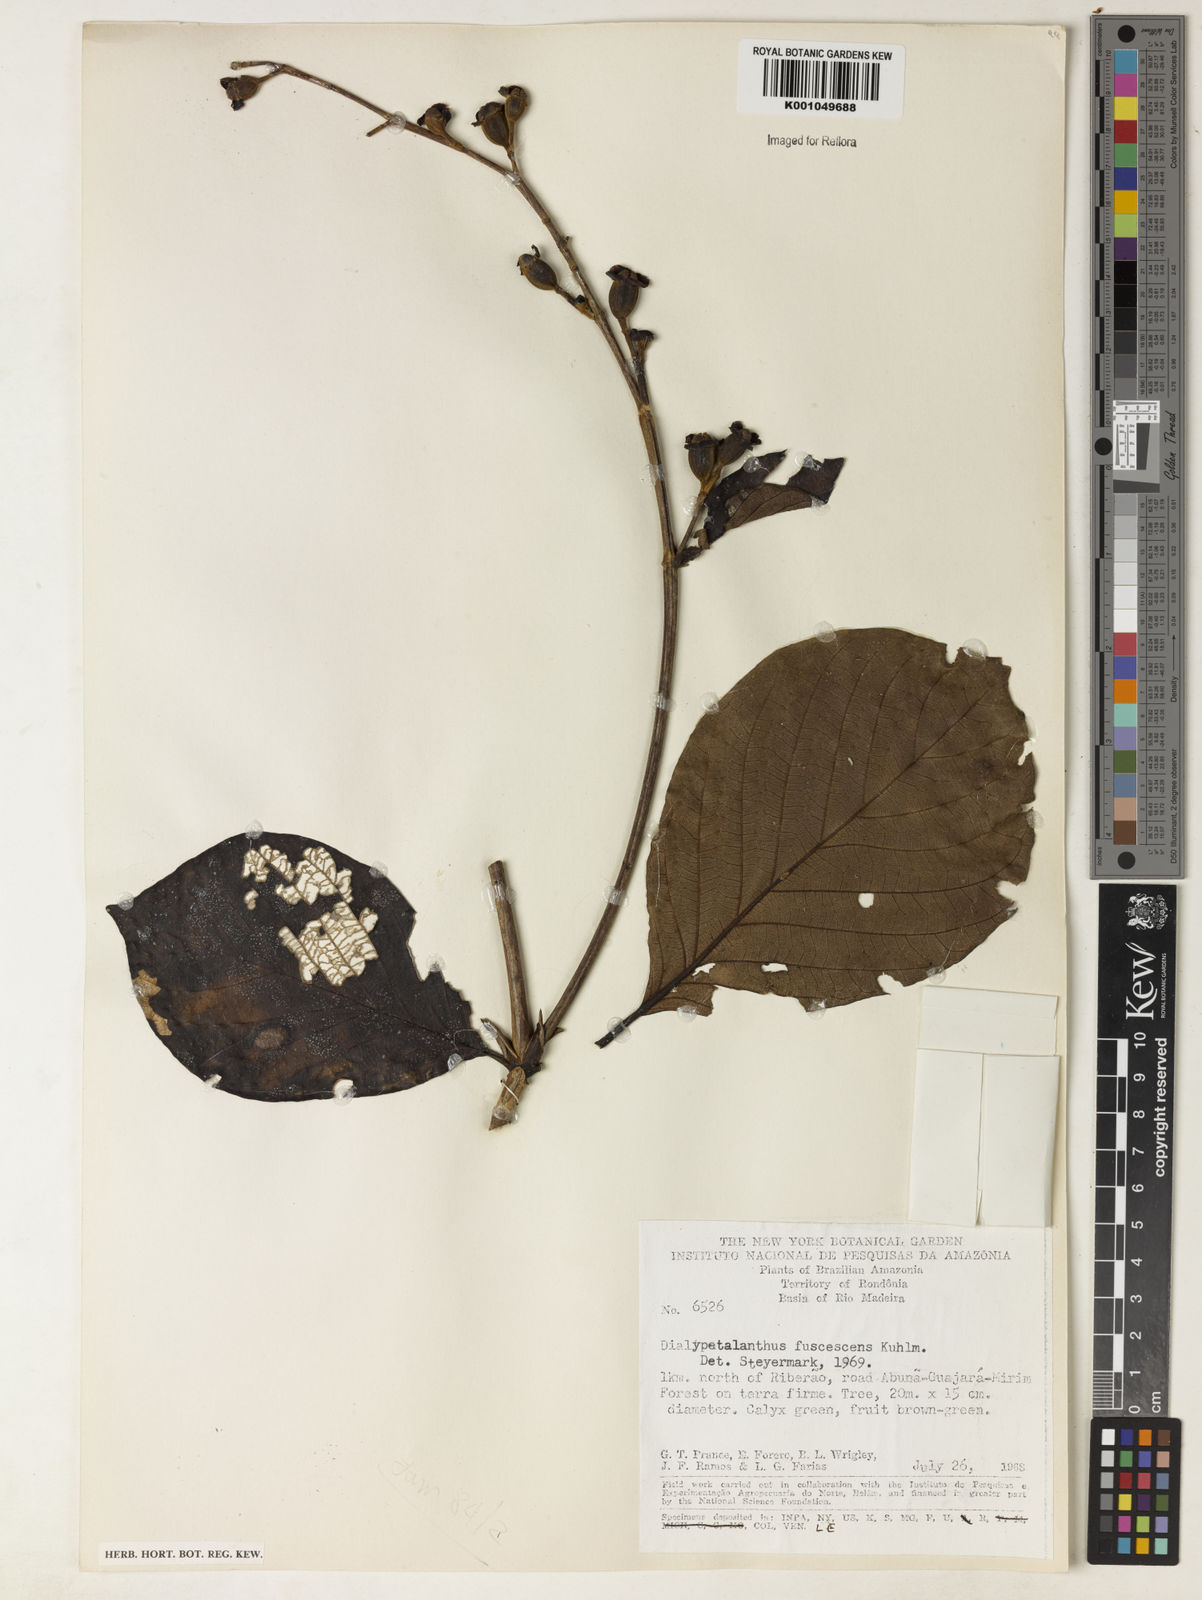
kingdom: Plantae
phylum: Tracheophyta
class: Magnoliopsida
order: Gentianales
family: Rubiaceae
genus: Dialypetalanthus
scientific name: Dialypetalanthus fuscescens
